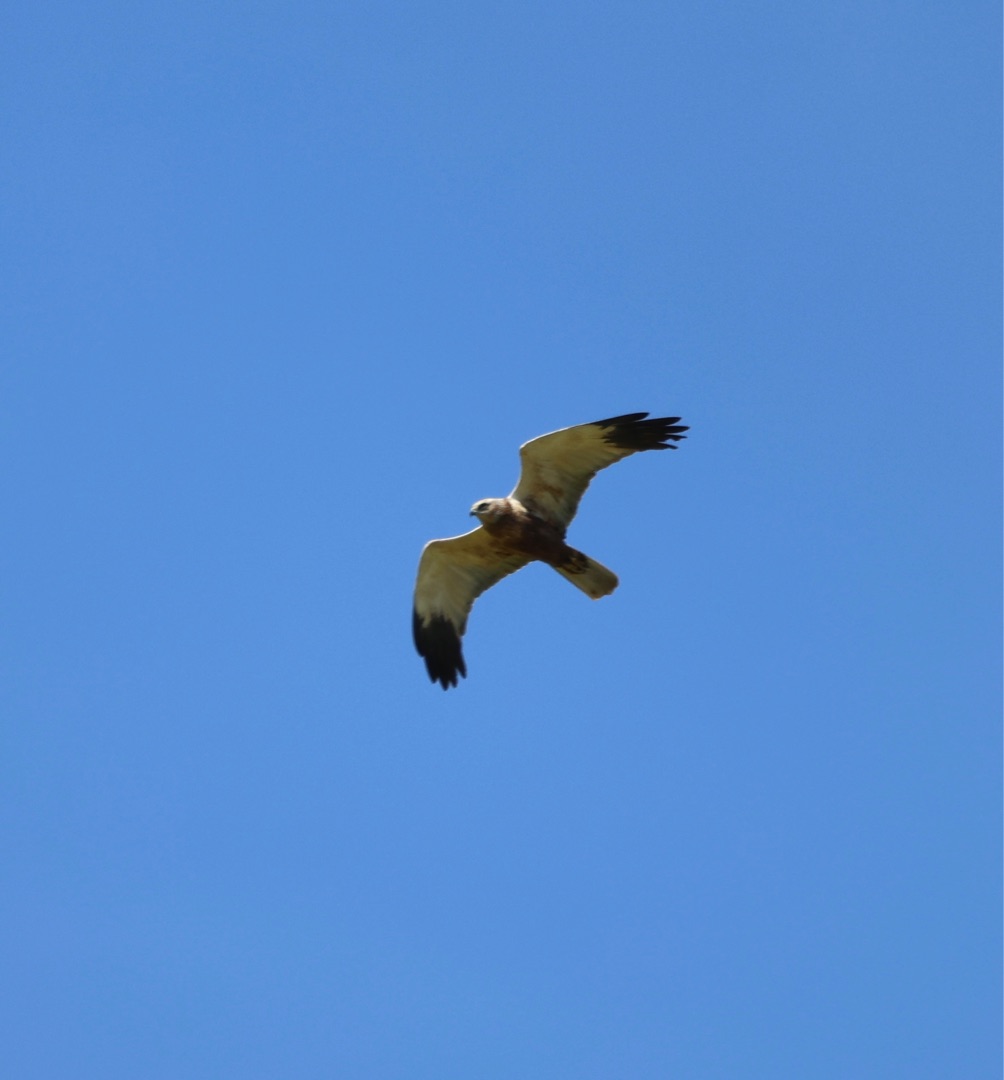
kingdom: Animalia
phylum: Chordata
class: Aves
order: Accipitriformes
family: Accipitridae
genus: Circus
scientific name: Circus aeruginosus
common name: Rørhøg
